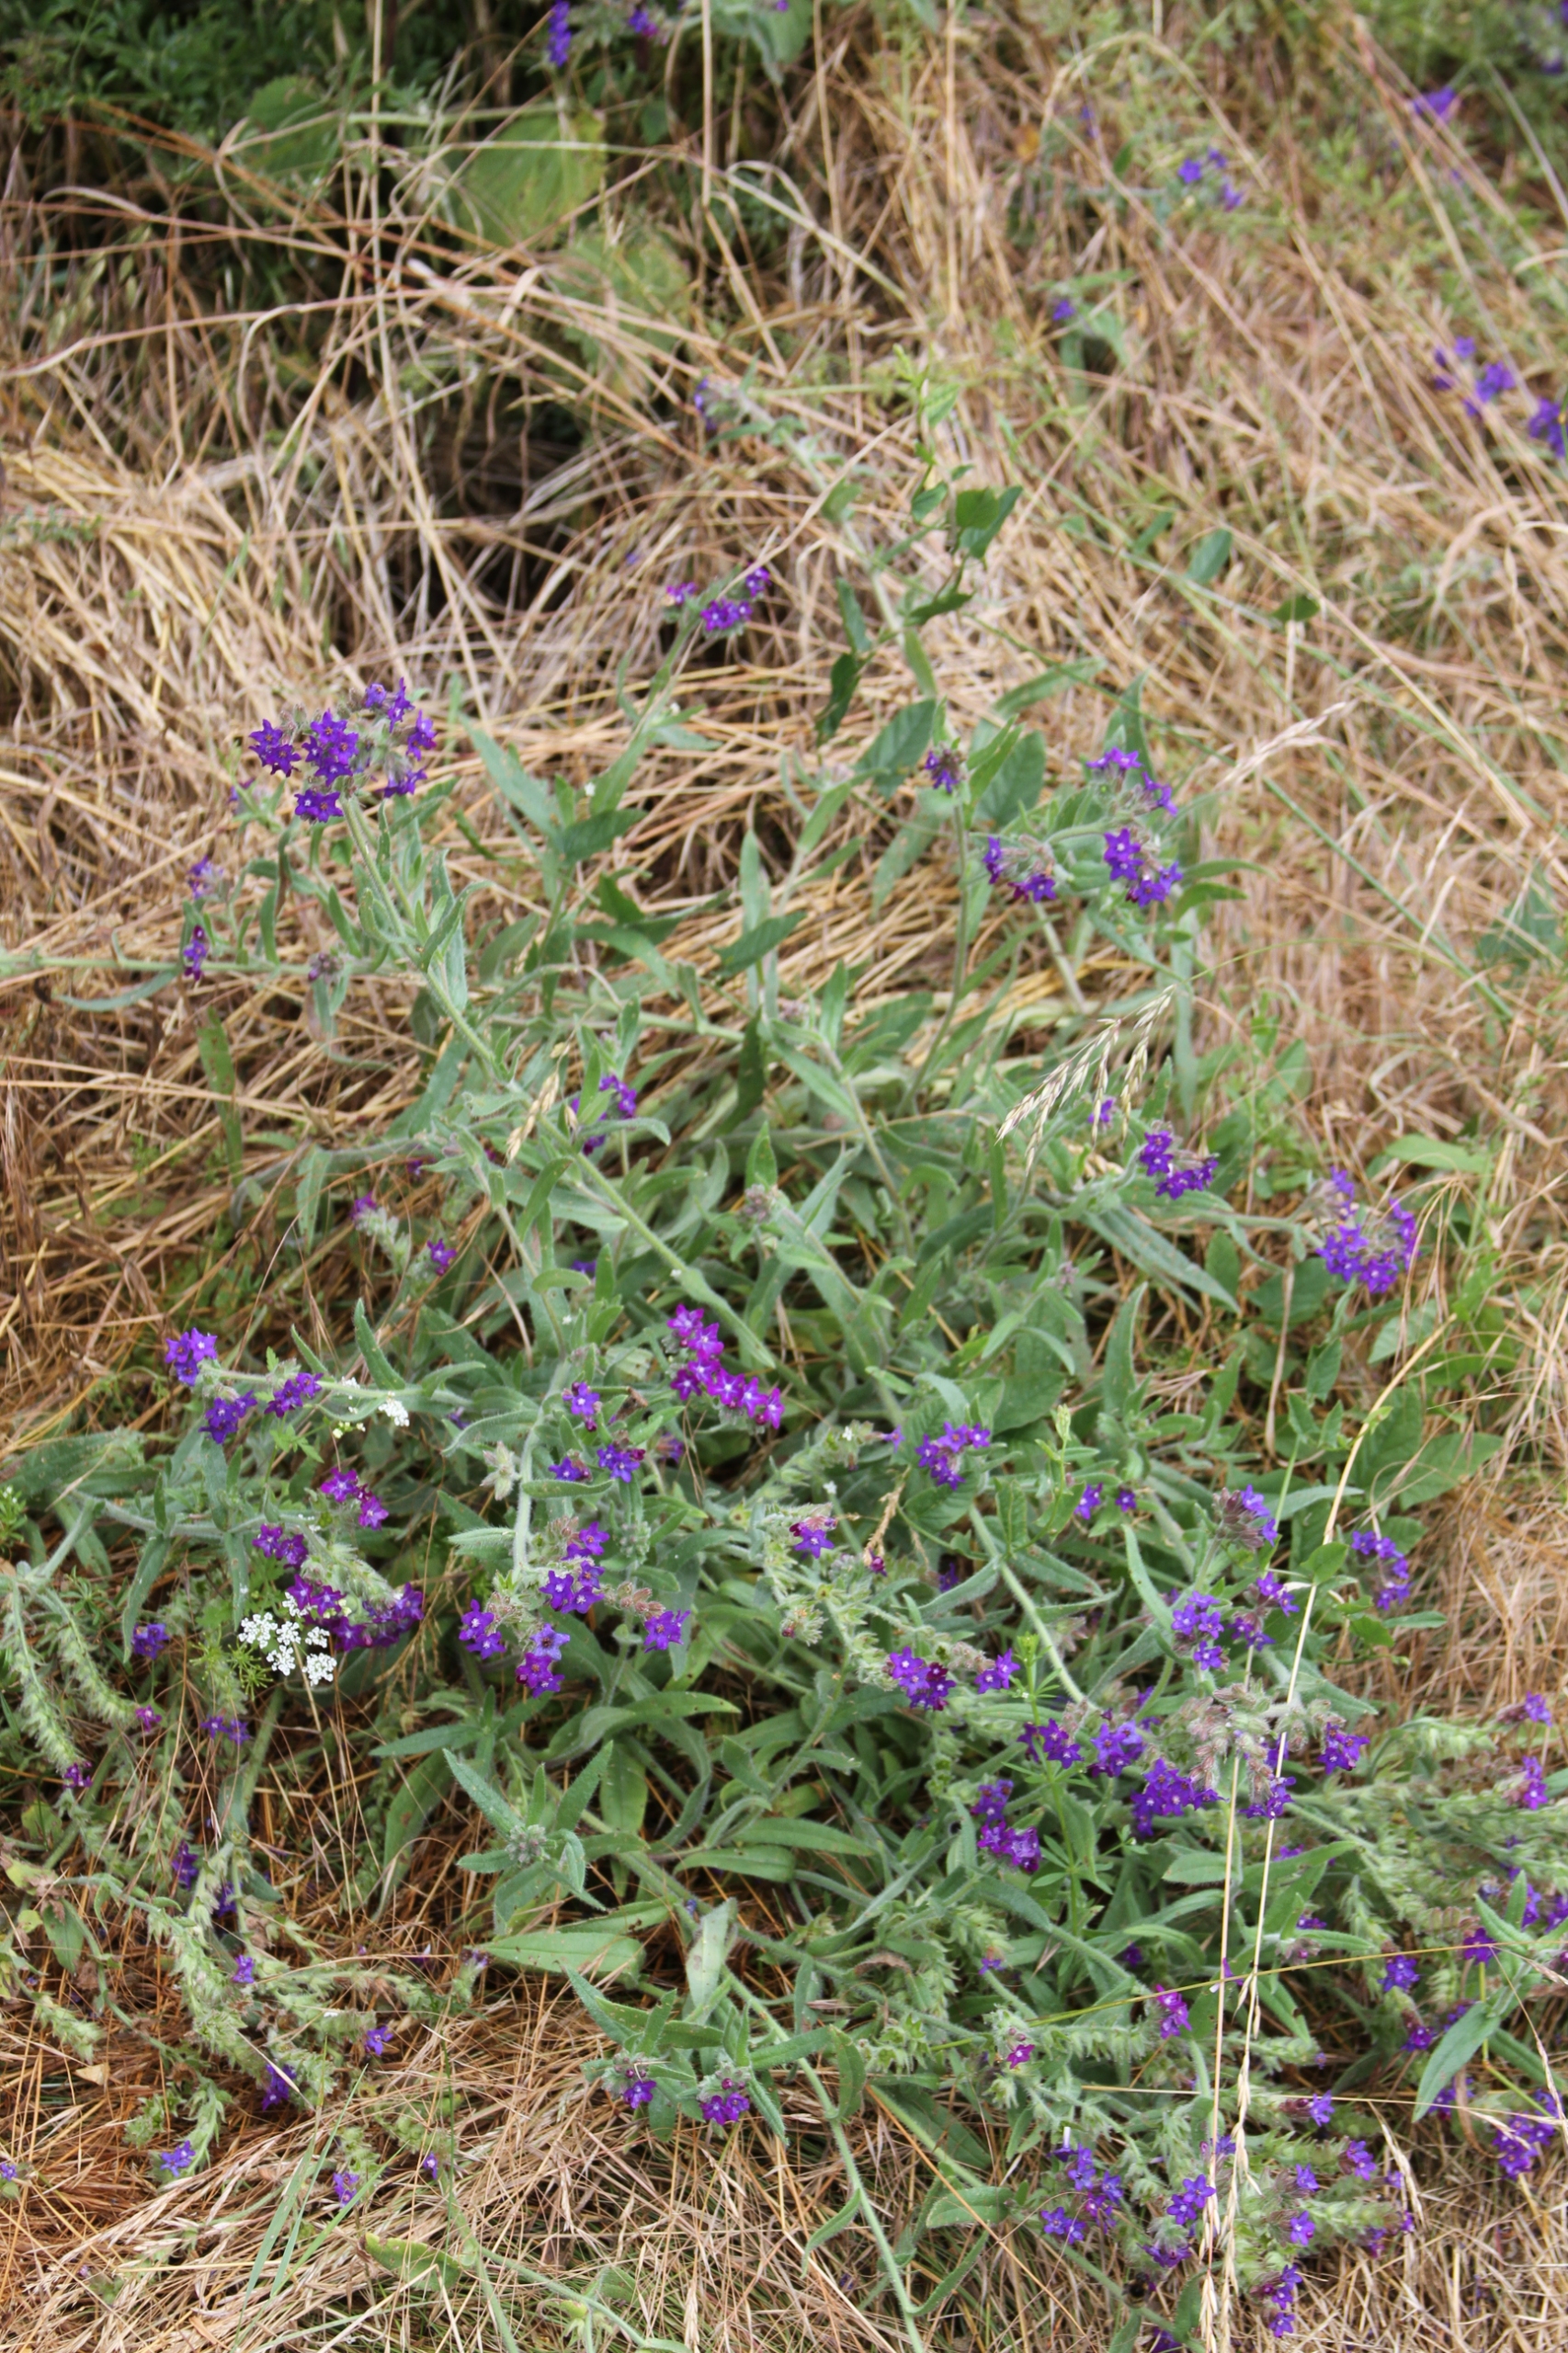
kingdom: Plantae
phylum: Tracheophyta
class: Magnoliopsida
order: Boraginales
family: Boraginaceae
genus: Anchusa
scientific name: Anchusa officinalis
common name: Læge-oksetunge
